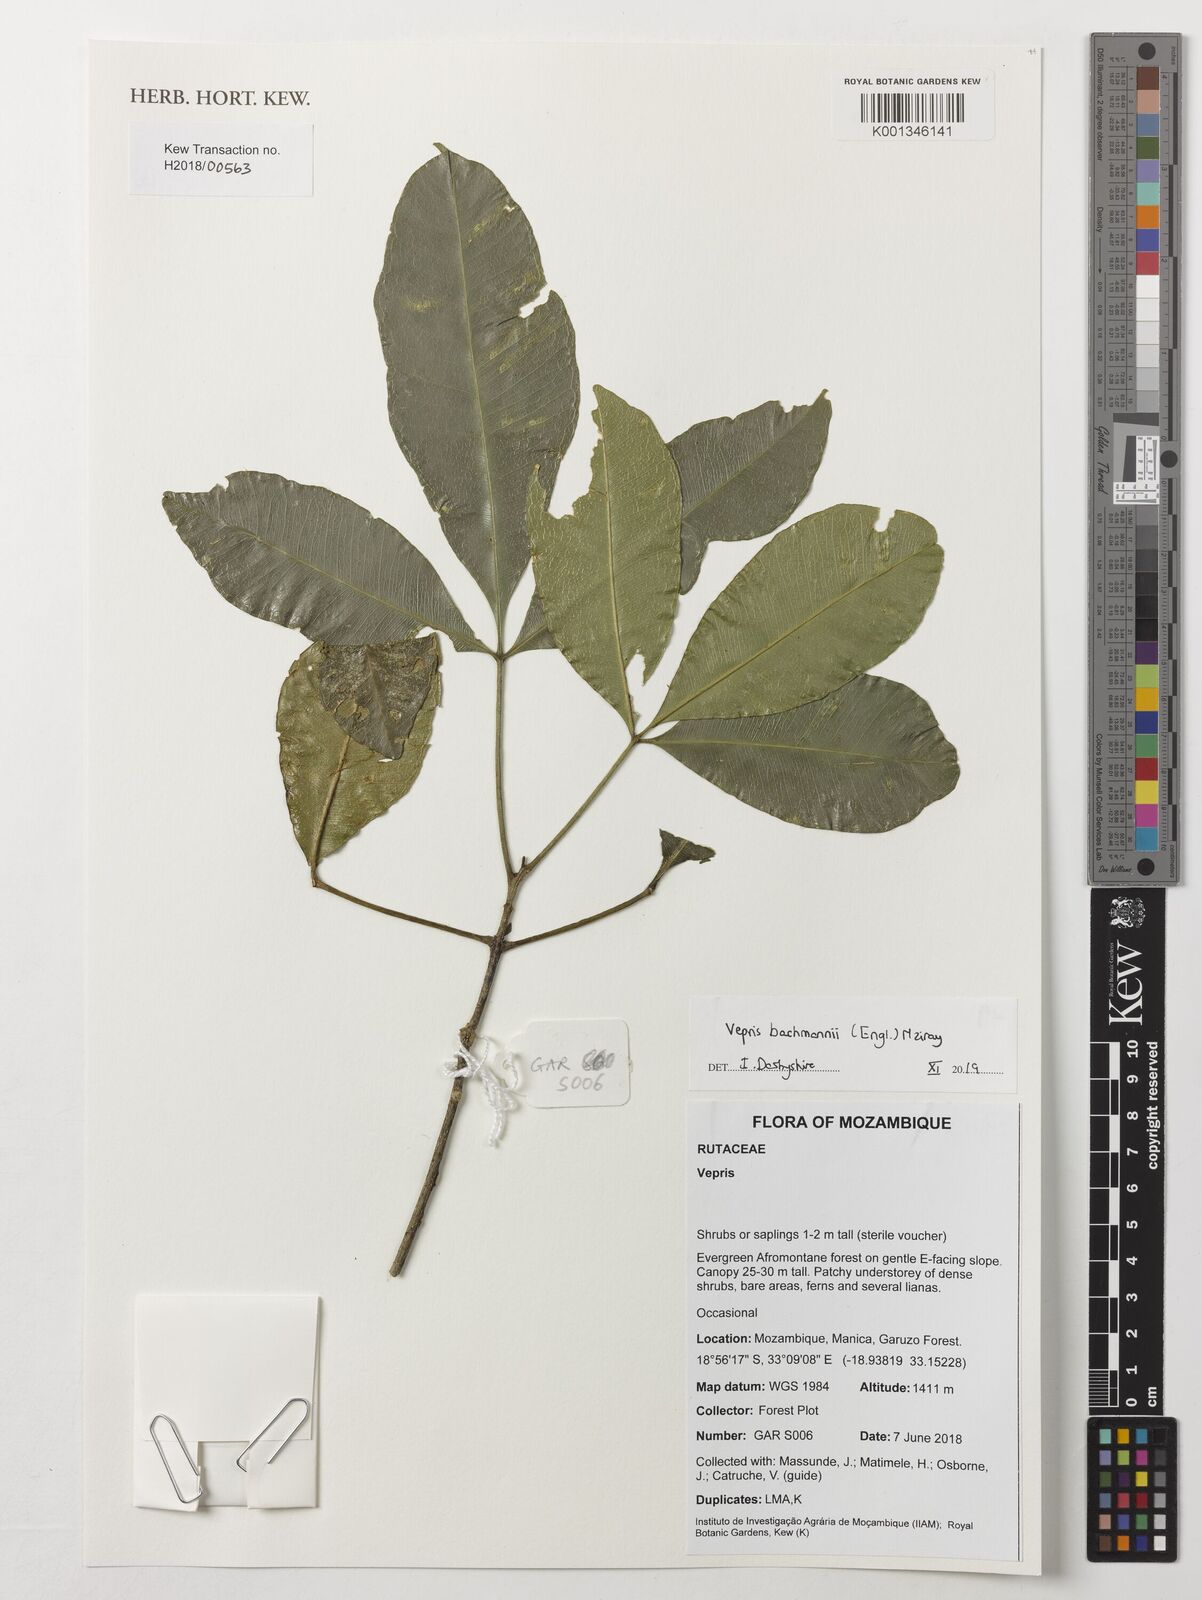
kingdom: Plantae
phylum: Tracheophyta
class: Magnoliopsida
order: Sapindales
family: Rutaceae
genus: Vepris
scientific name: Vepris bachmannii
